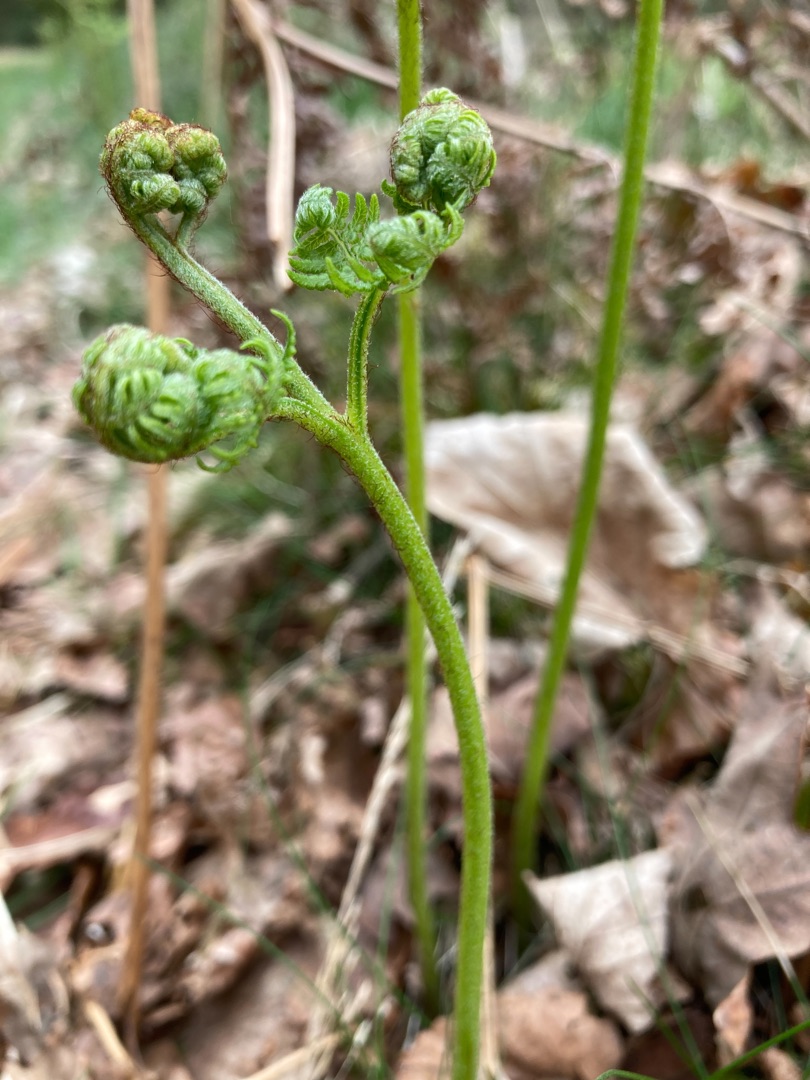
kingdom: Plantae
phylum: Tracheophyta
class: Polypodiopsida
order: Polypodiales
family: Dennstaedtiaceae
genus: Pteridium
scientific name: Pteridium aquilinum
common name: Ørnebregne
